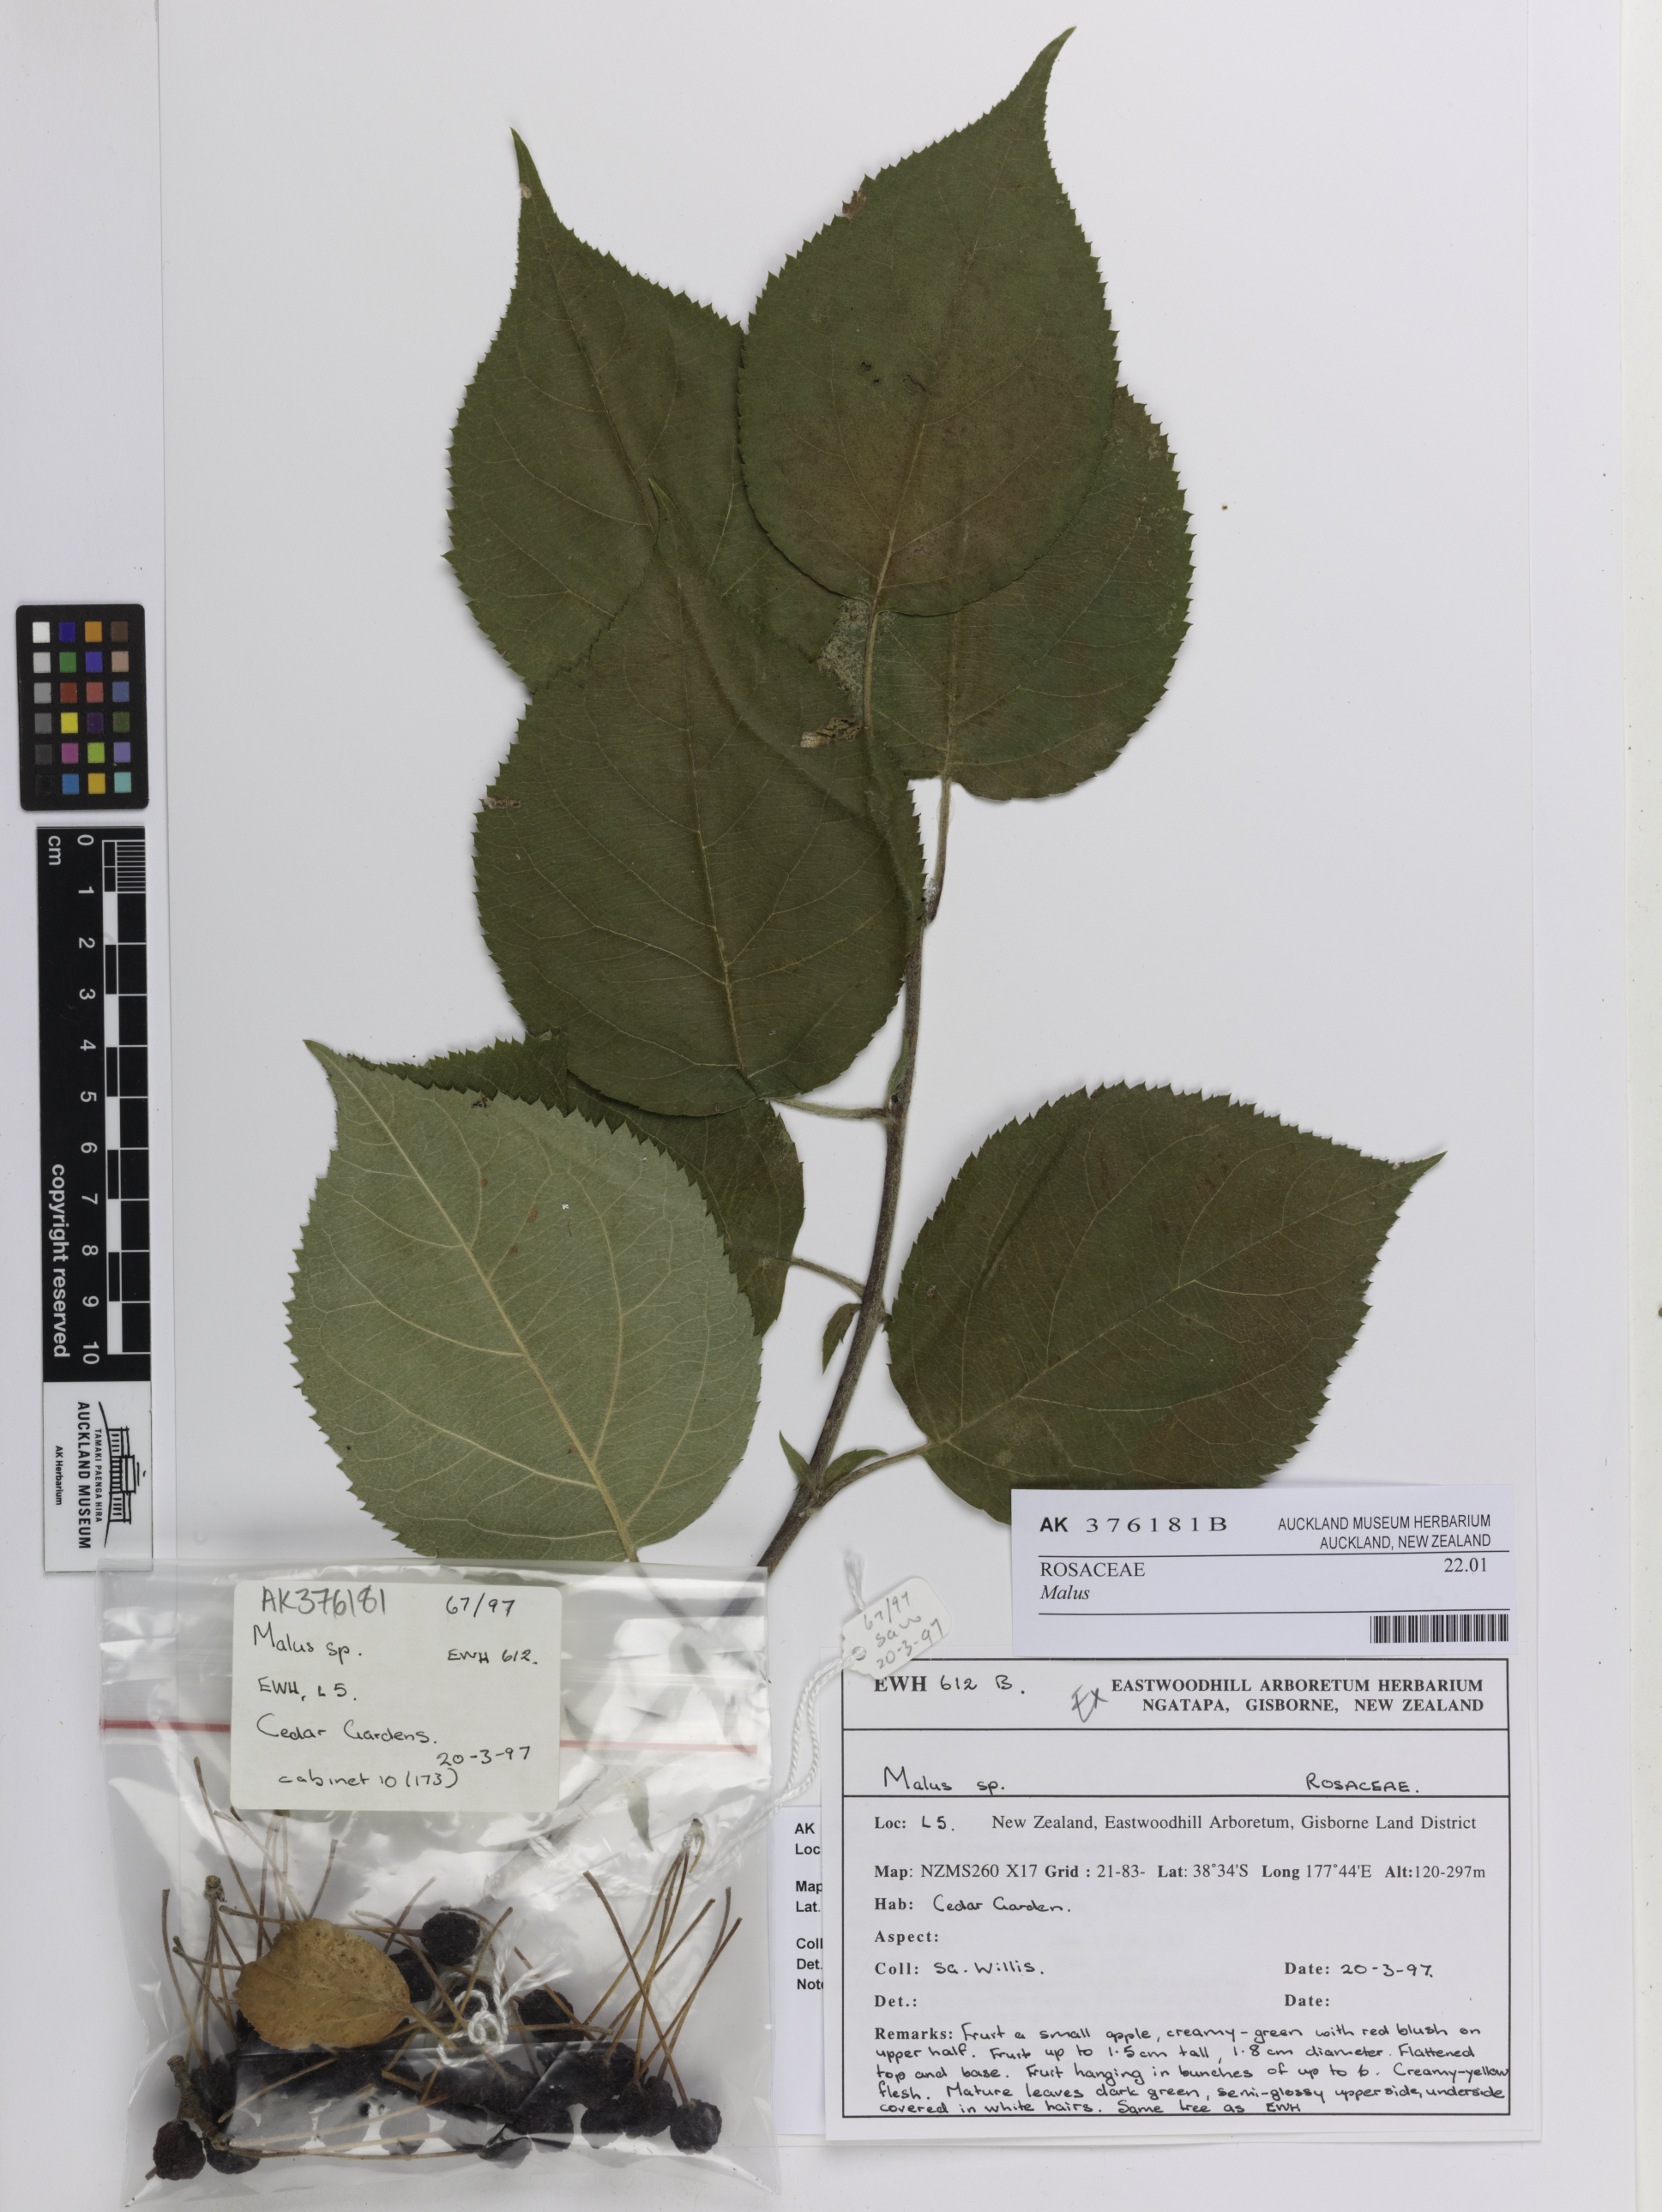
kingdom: Plantae
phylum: Tracheophyta
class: Magnoliopsida
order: Rosales
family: Rosaceae
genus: Malus
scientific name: Malus
